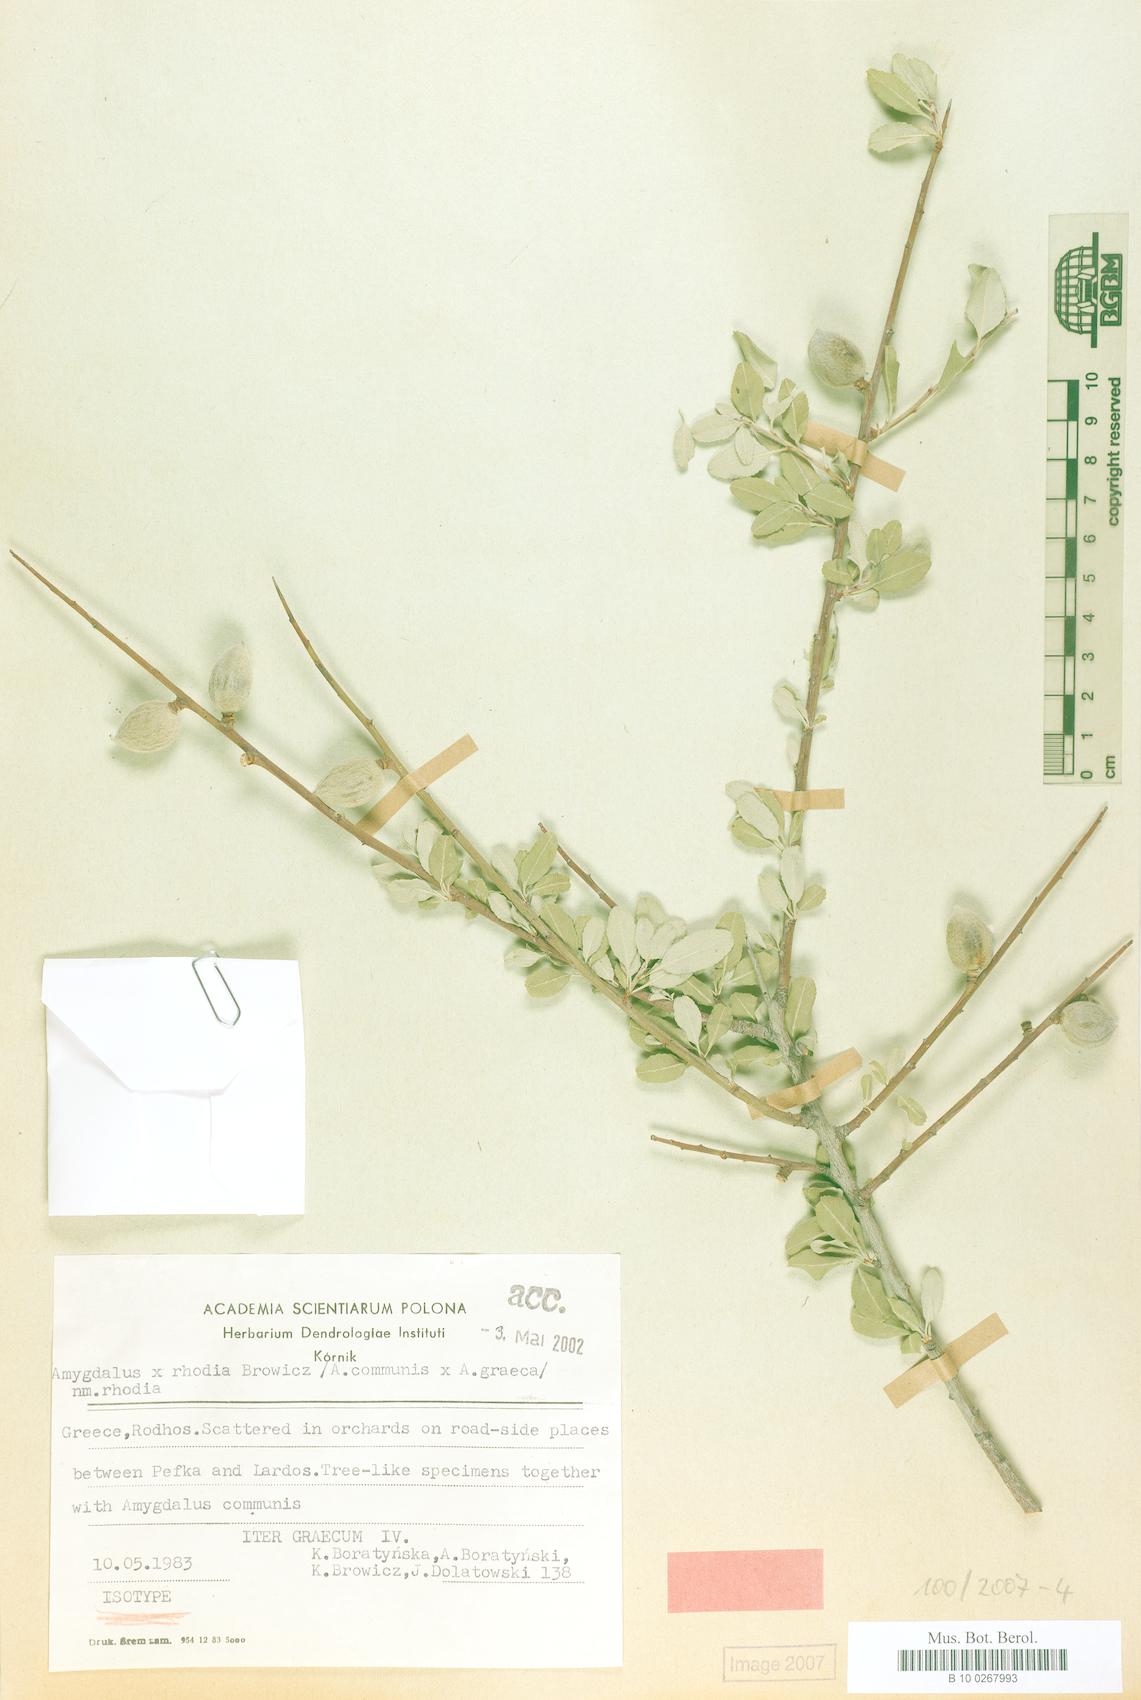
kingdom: Plantae
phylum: Tracheophyta
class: Magnoliopsida
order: Rosales
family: Rosaceae
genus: Prunus
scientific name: Prunus rhodia
